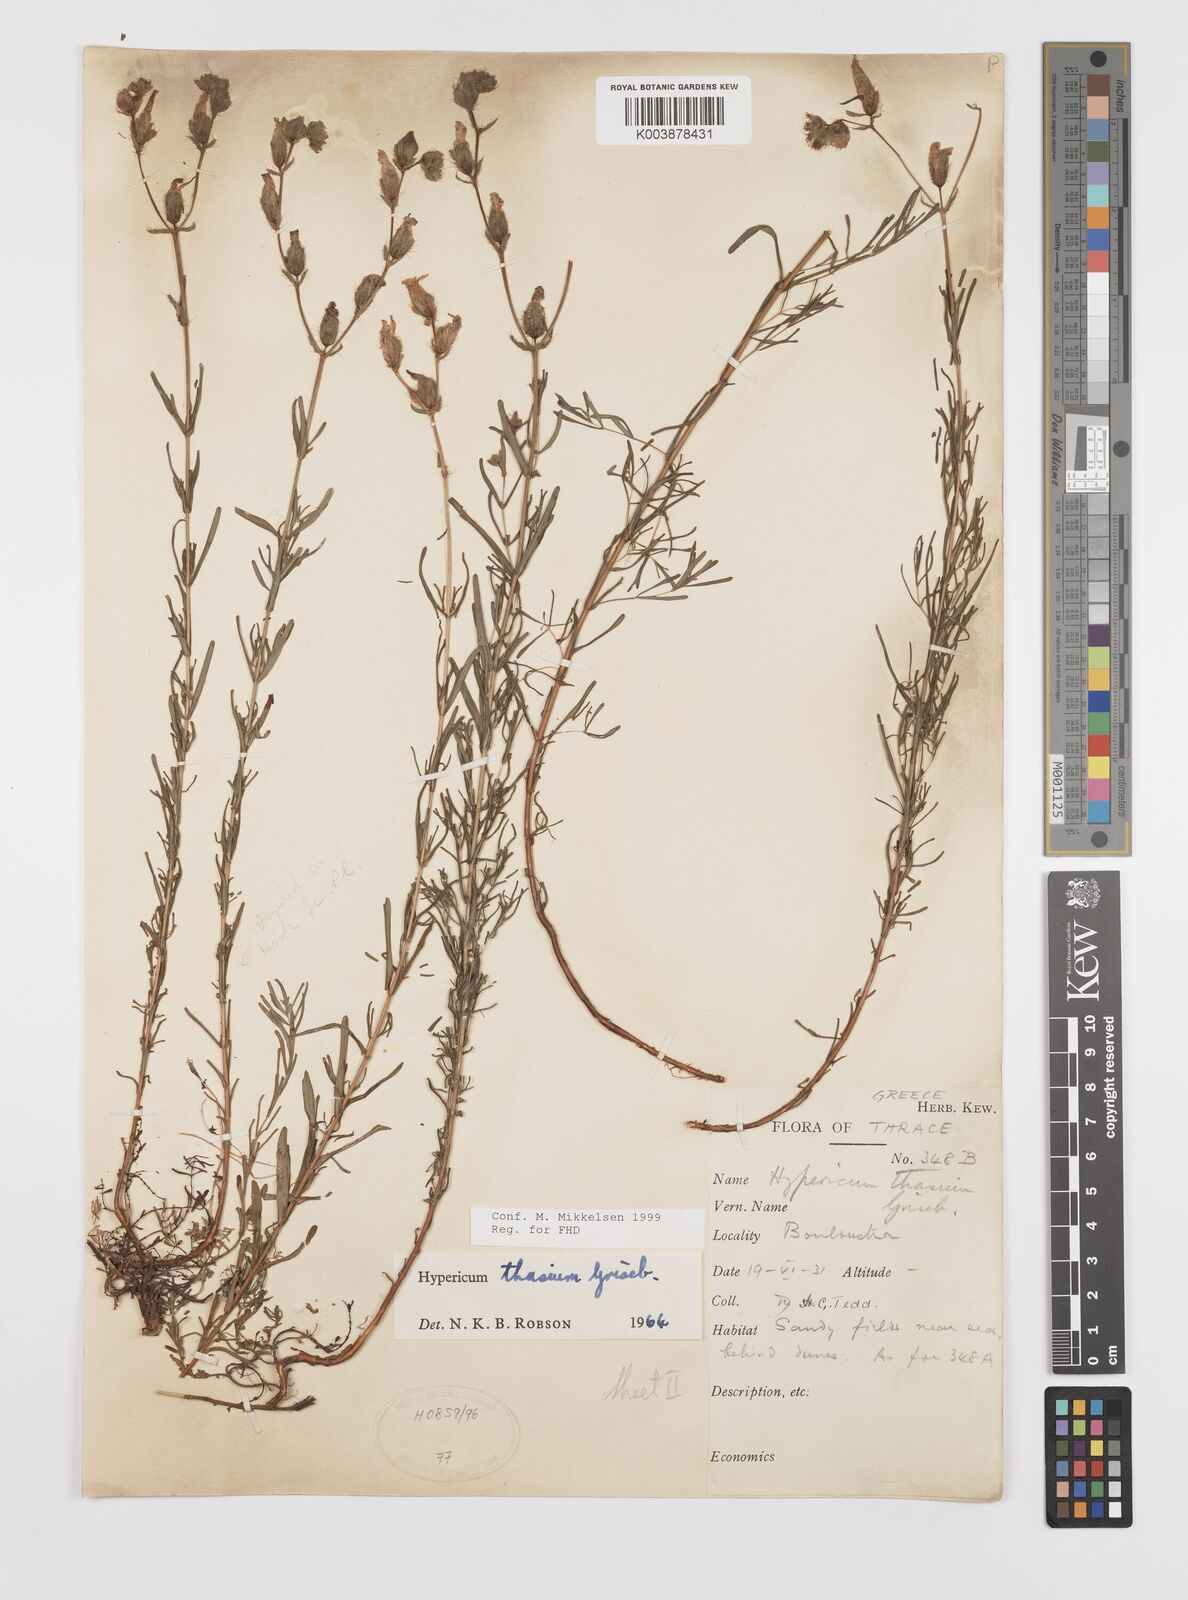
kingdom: Plantae
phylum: Tracheophyta
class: Magnoliopsida
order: Malpighiales
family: Hypericaceae
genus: Hypericum
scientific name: Hypericum thasium
